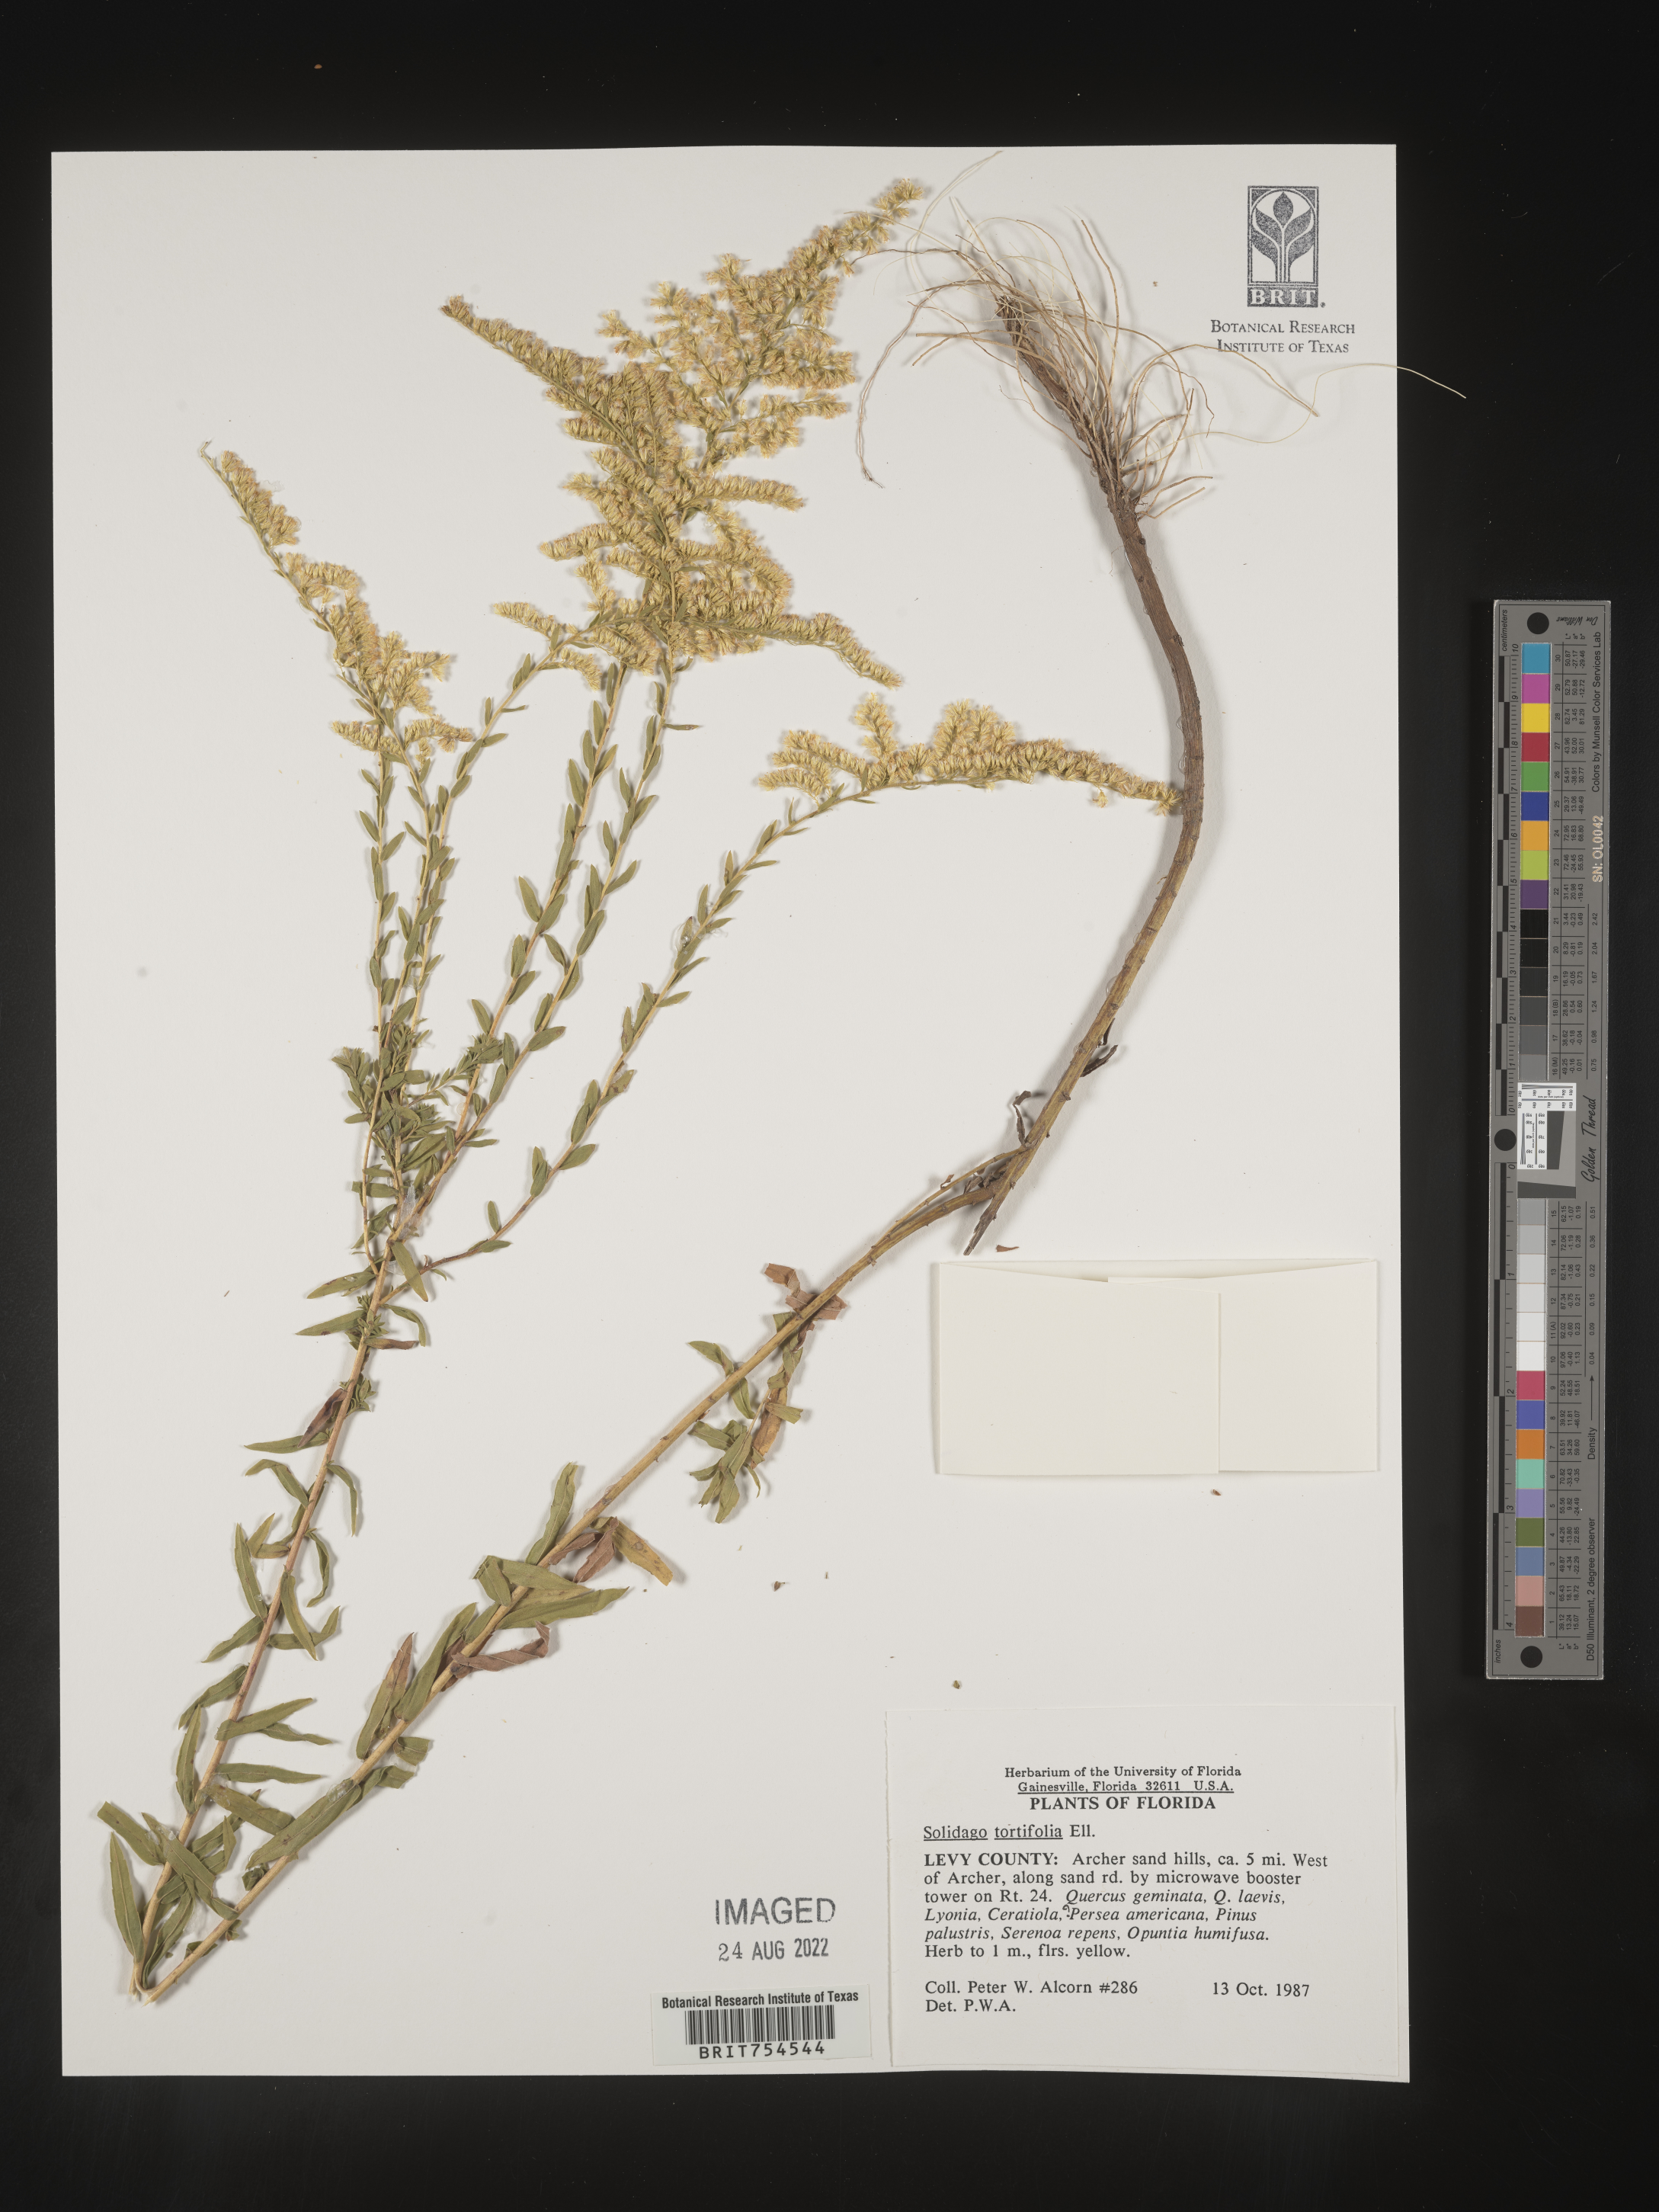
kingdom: Plantae
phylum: Tracheophyta
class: Magnoliopsida
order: Asterales
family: Asteraceae
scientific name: Asteraceae
